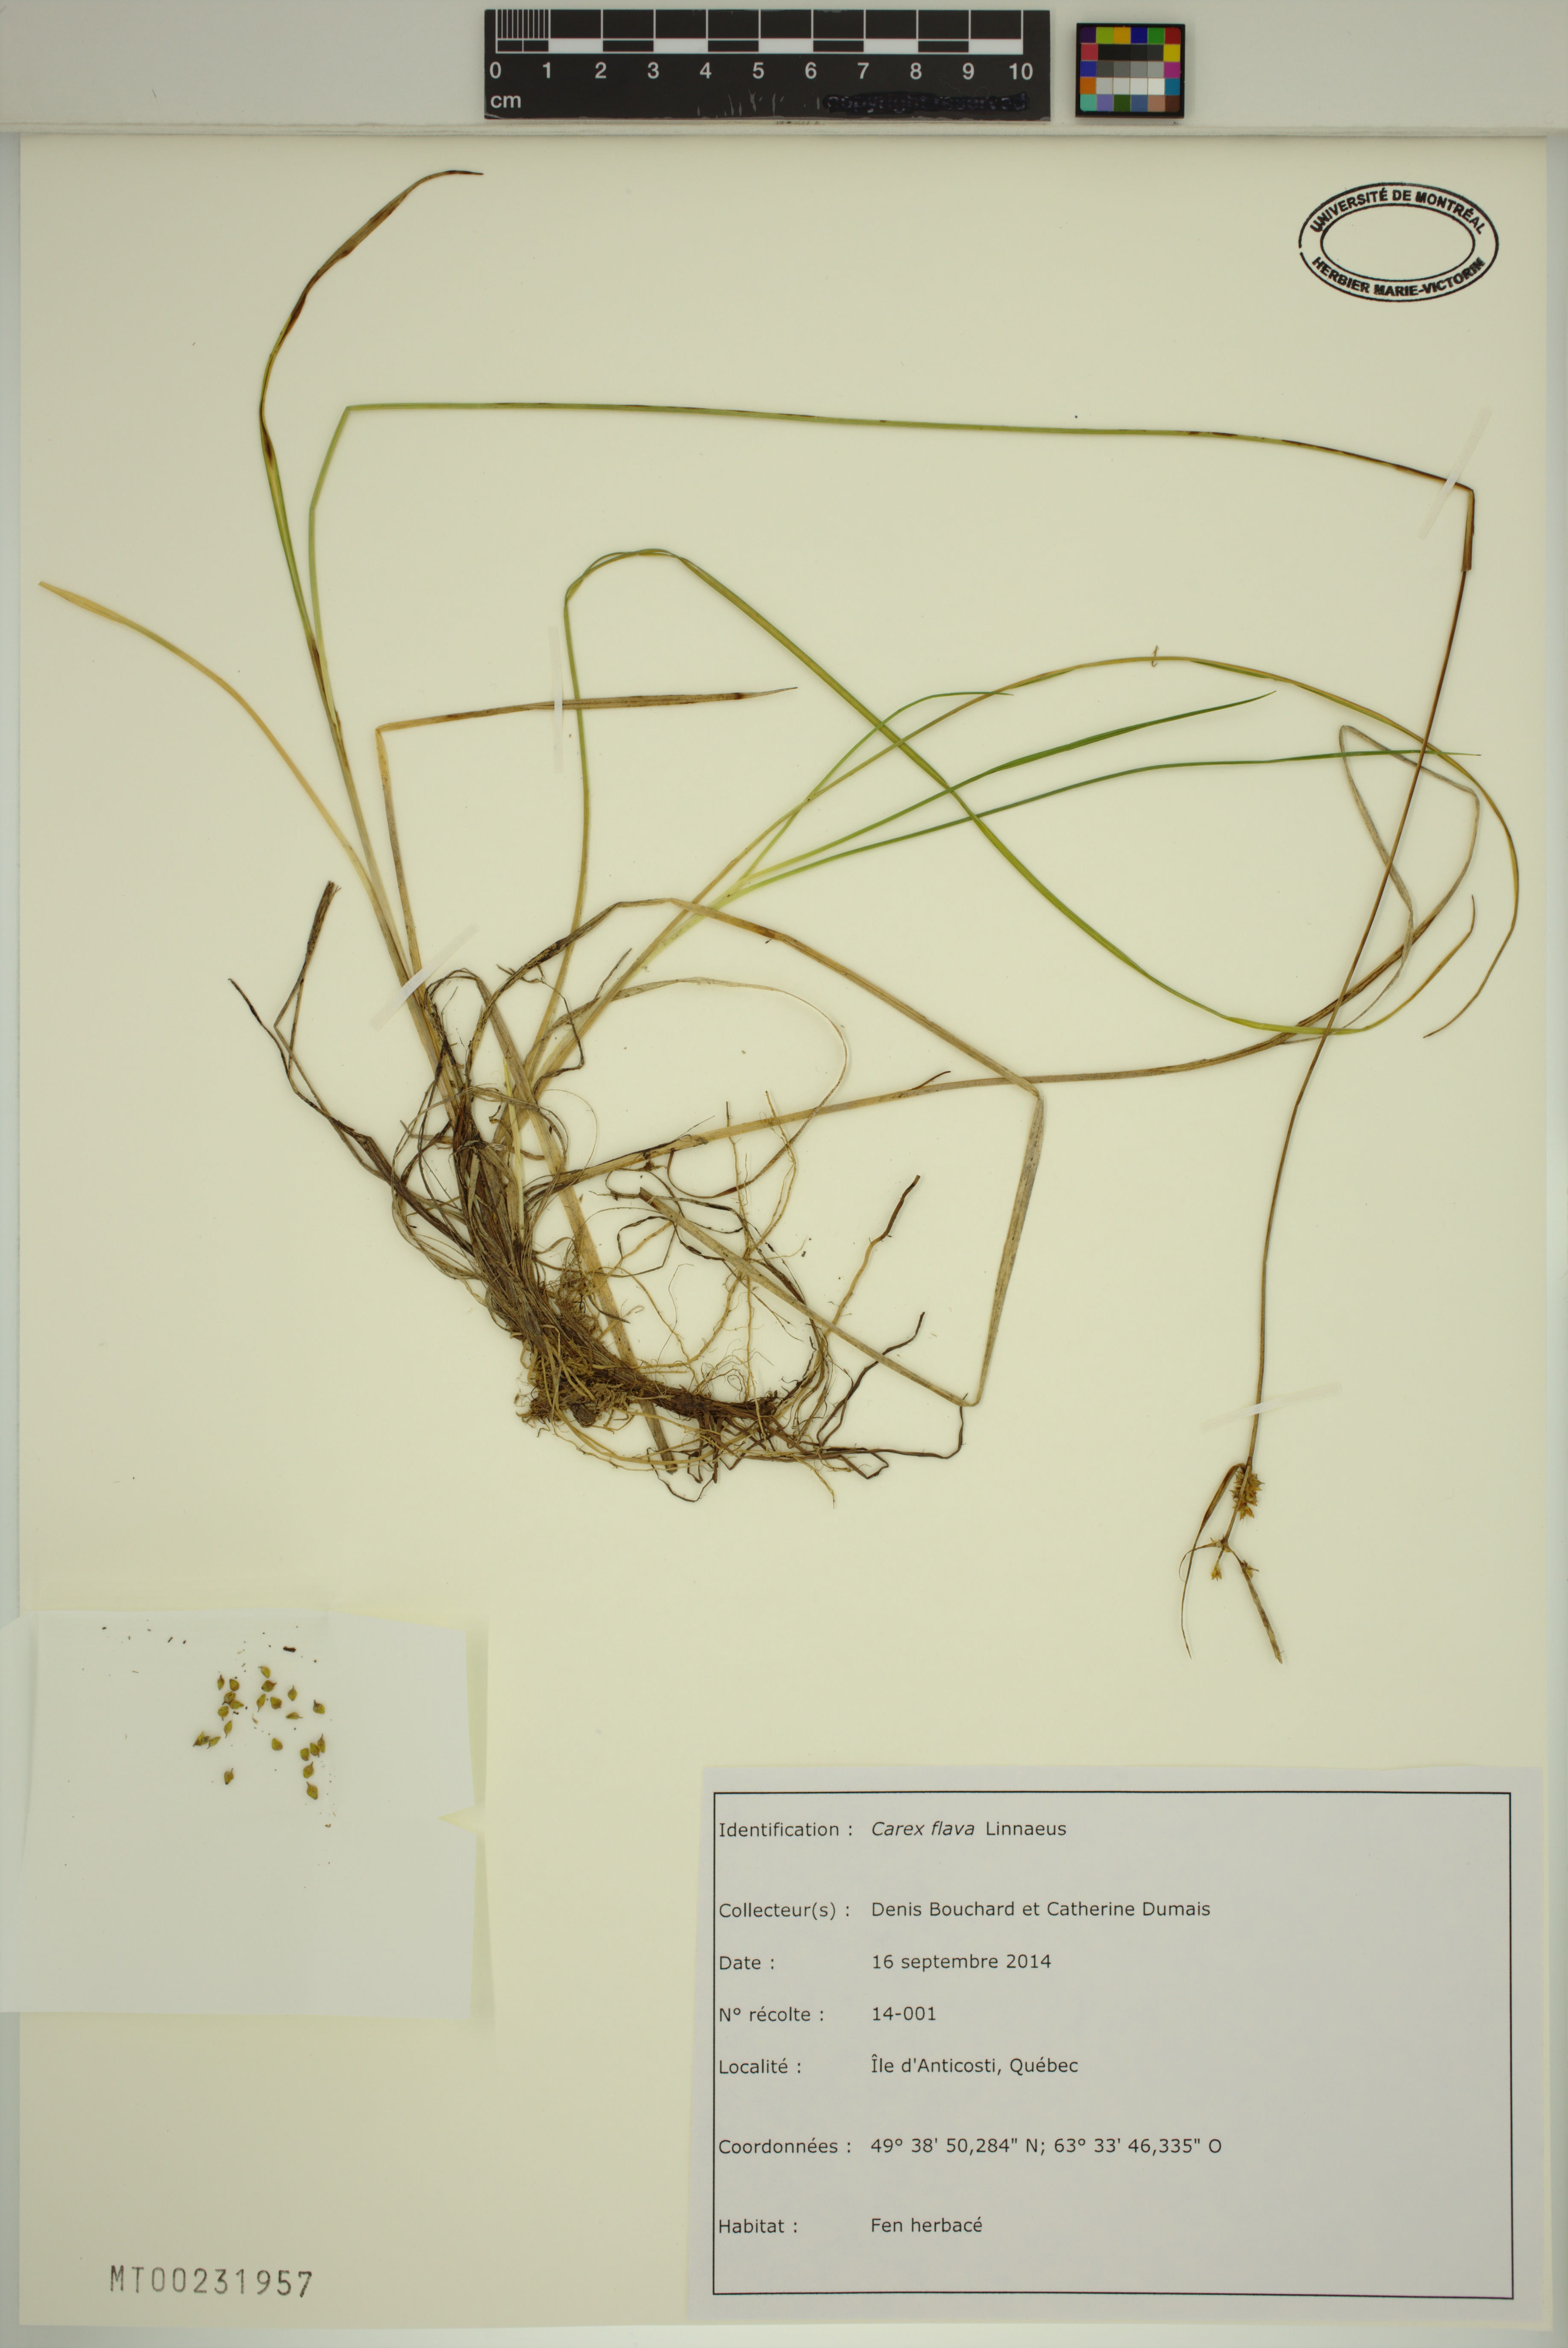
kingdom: Plantae
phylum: Tracheophyta
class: Liliopsida
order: Poales
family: Cyperaceae
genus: Carex
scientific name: Carex flava
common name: Large yellow-sedge
